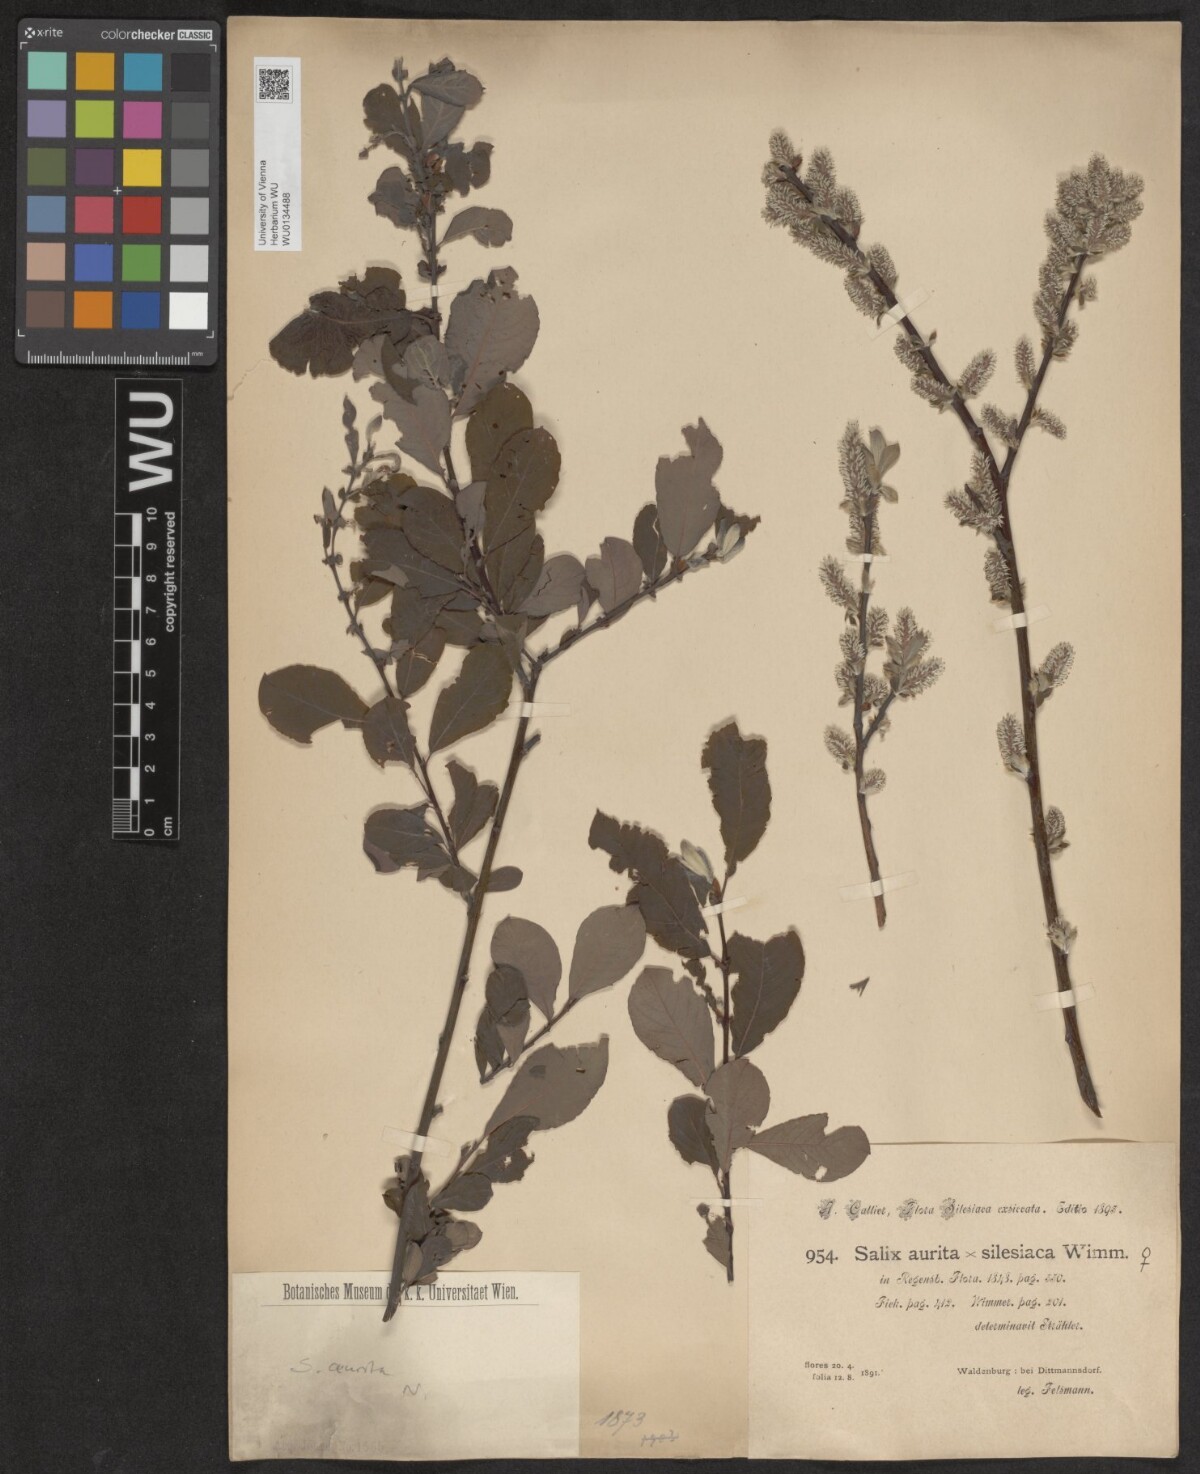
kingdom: Plantae
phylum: Tracheophyta
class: Magnoliopsida
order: Malpighiales
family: Salicaceae
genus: Salix
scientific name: Salix aurita
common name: Eared willow
